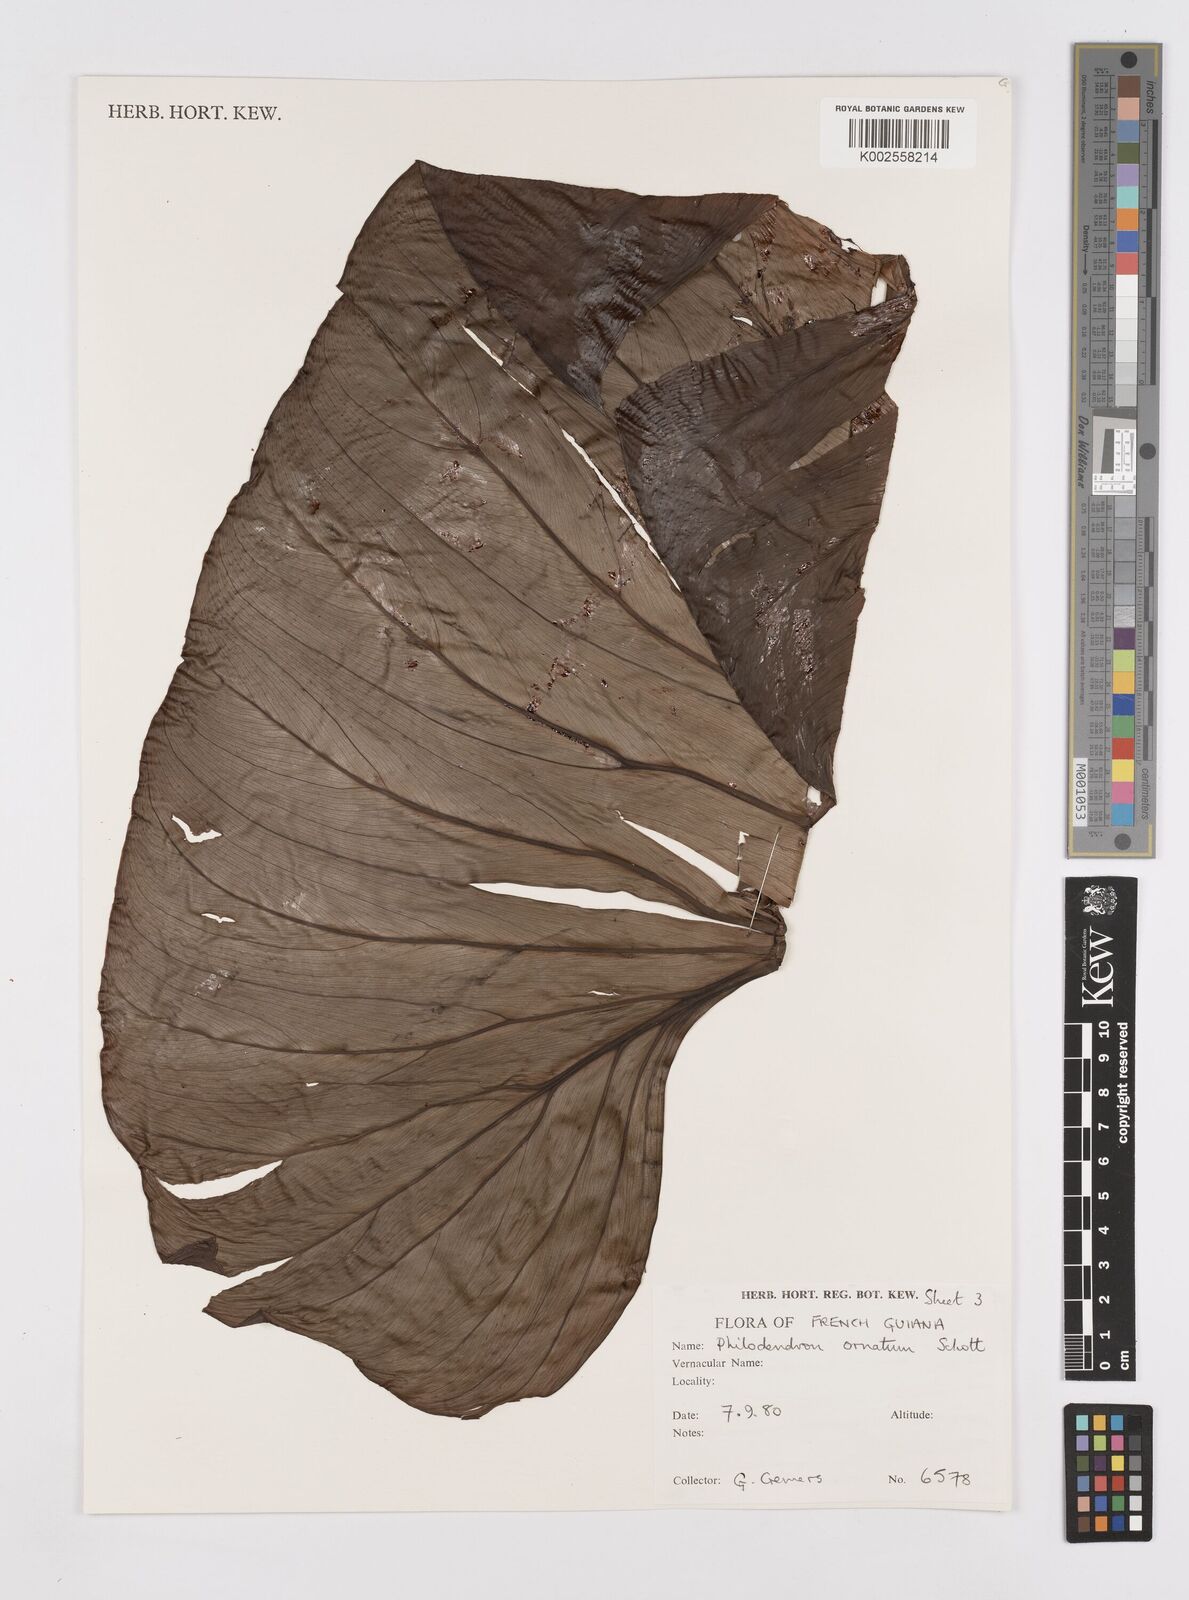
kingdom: Plantae
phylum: Tracheophyta
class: Liliopsida
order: Alismatales
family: Araceae
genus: Philodendron
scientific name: Philodendron ornatum
